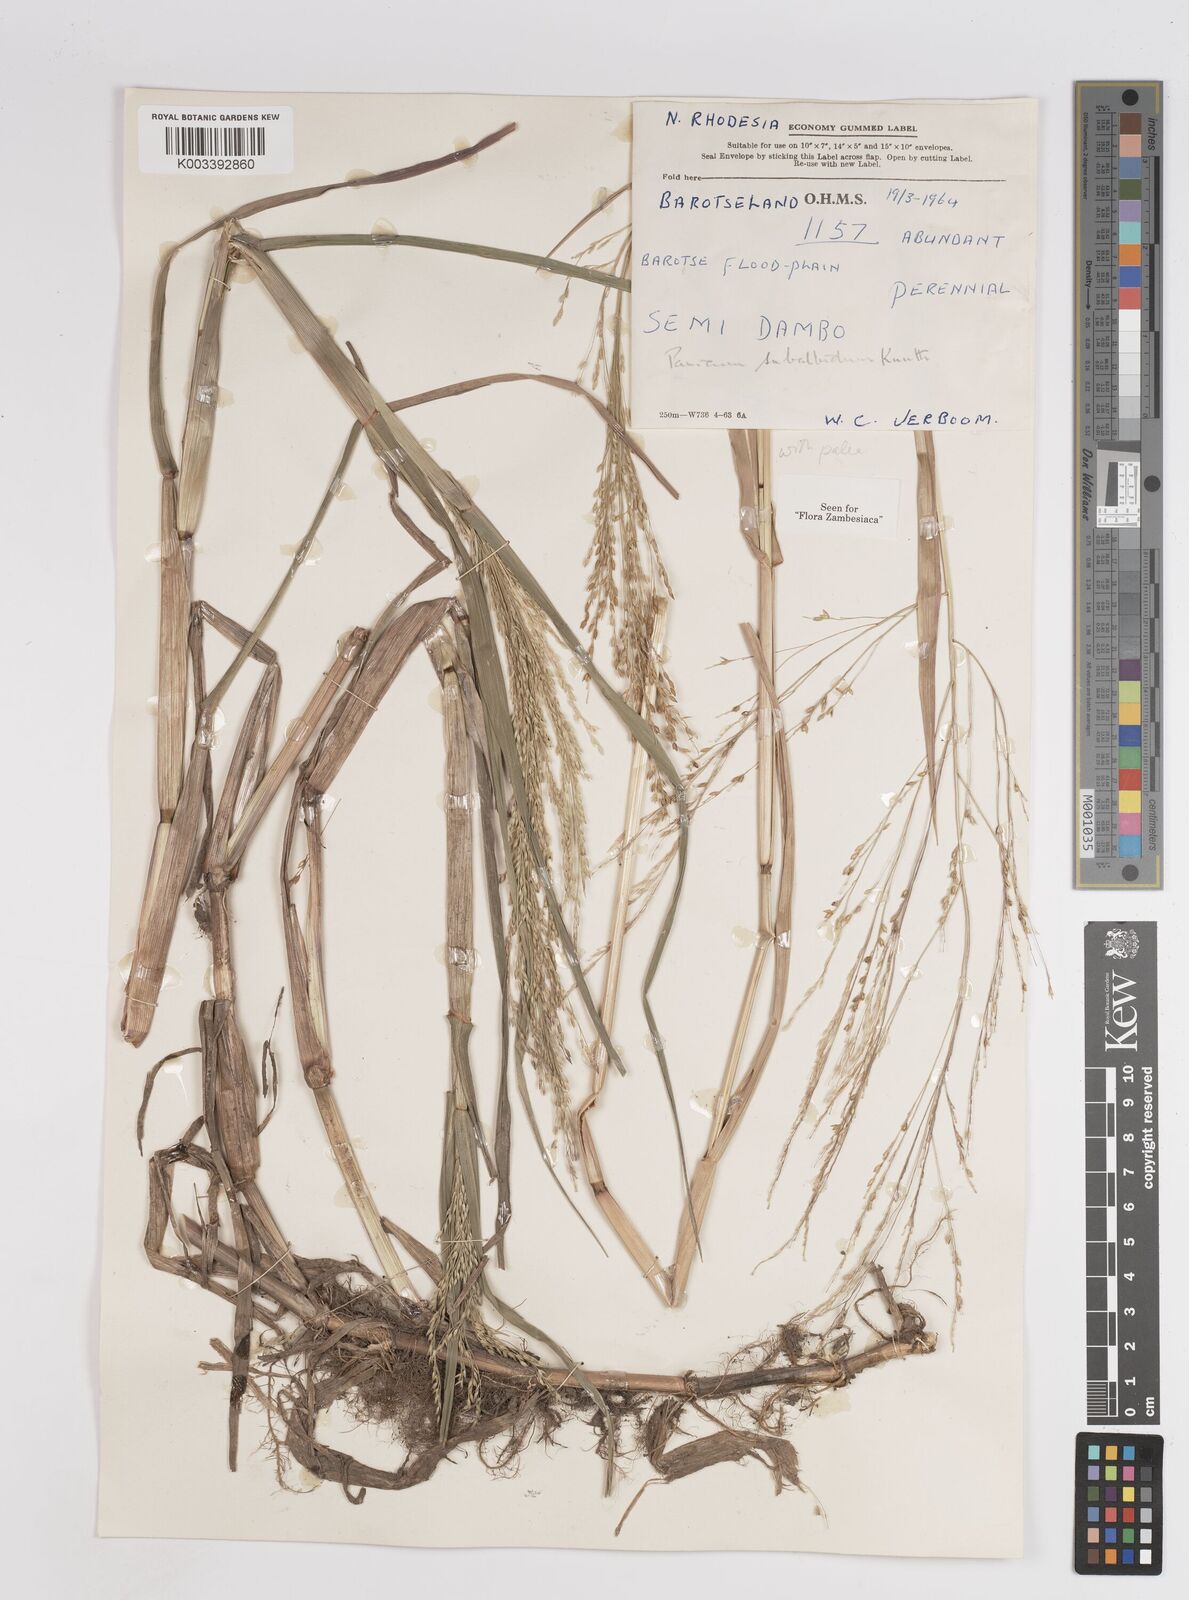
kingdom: Plantae
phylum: Tracheophyta
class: Liliopsida
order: Poales
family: Poaceae
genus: Panicum
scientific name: Panicum subalbidum
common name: Elbow buffalo grass
